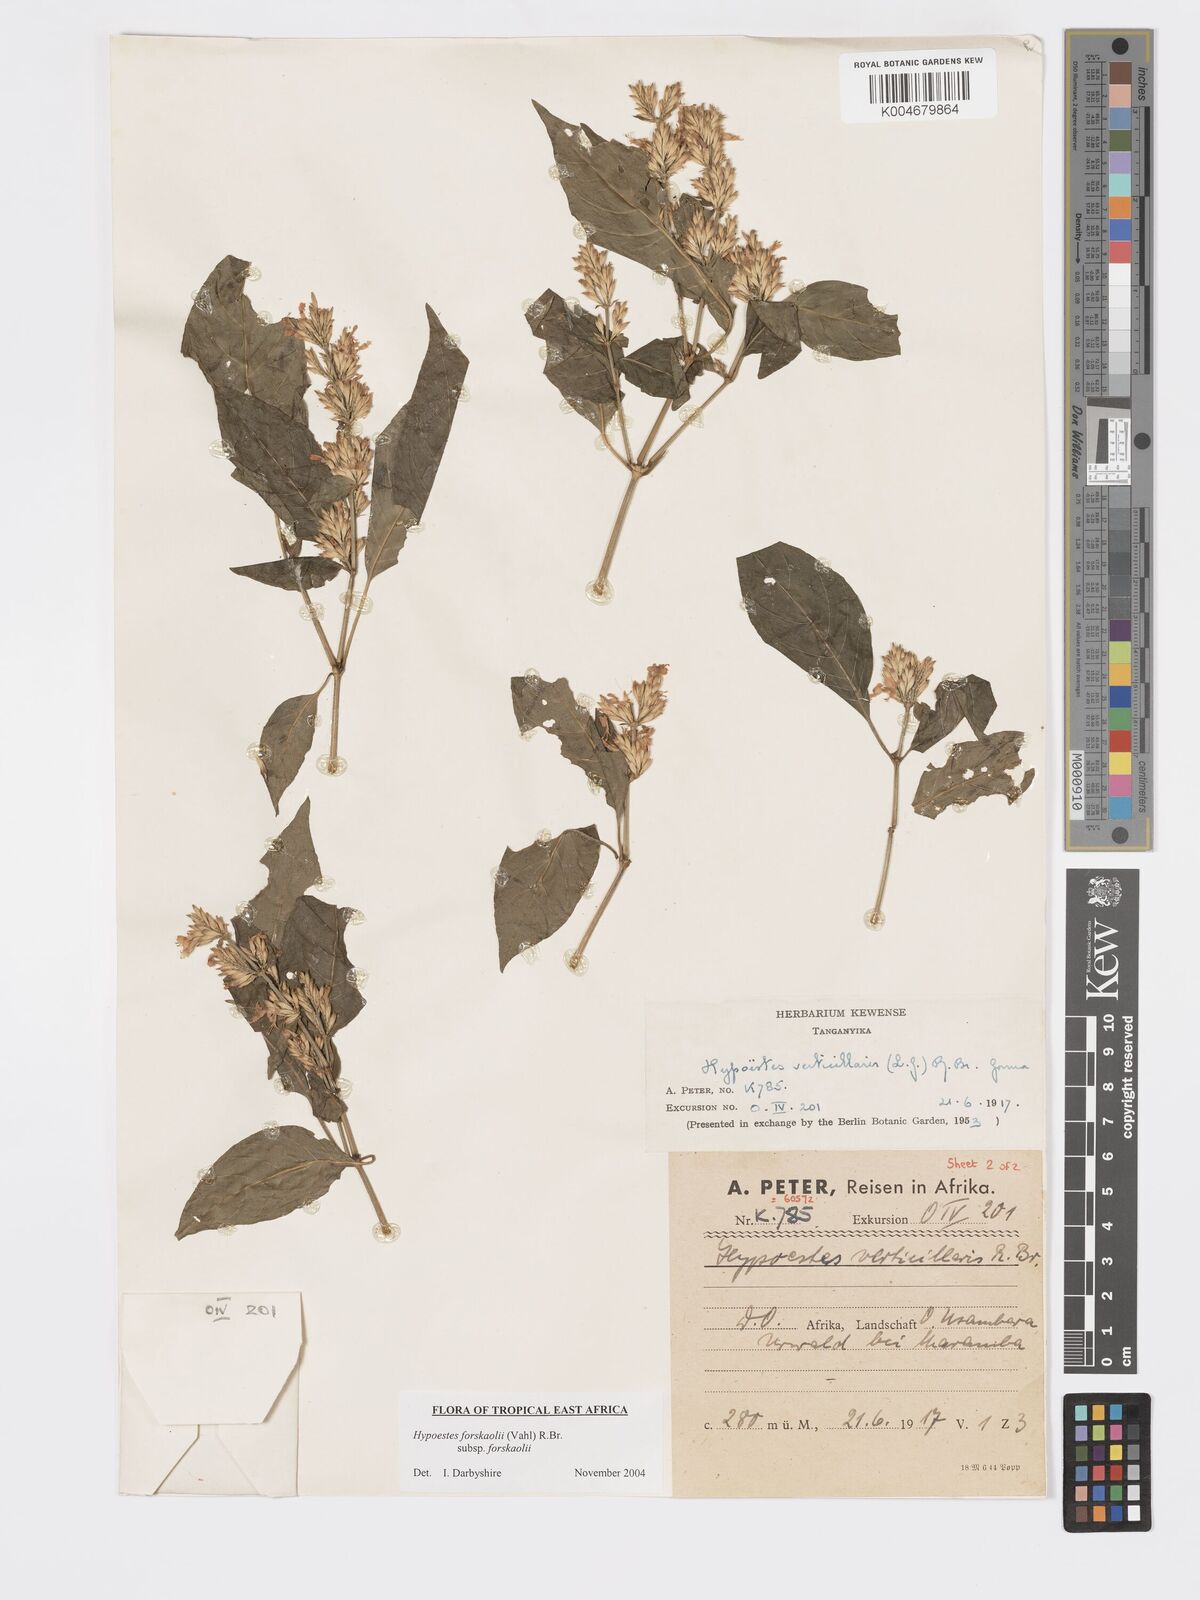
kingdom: Plantae
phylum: Tracheophyta
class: Magnoliopsida
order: Lamiales
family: Acanthaceae
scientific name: Acanthaceae
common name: Acanthaceae
